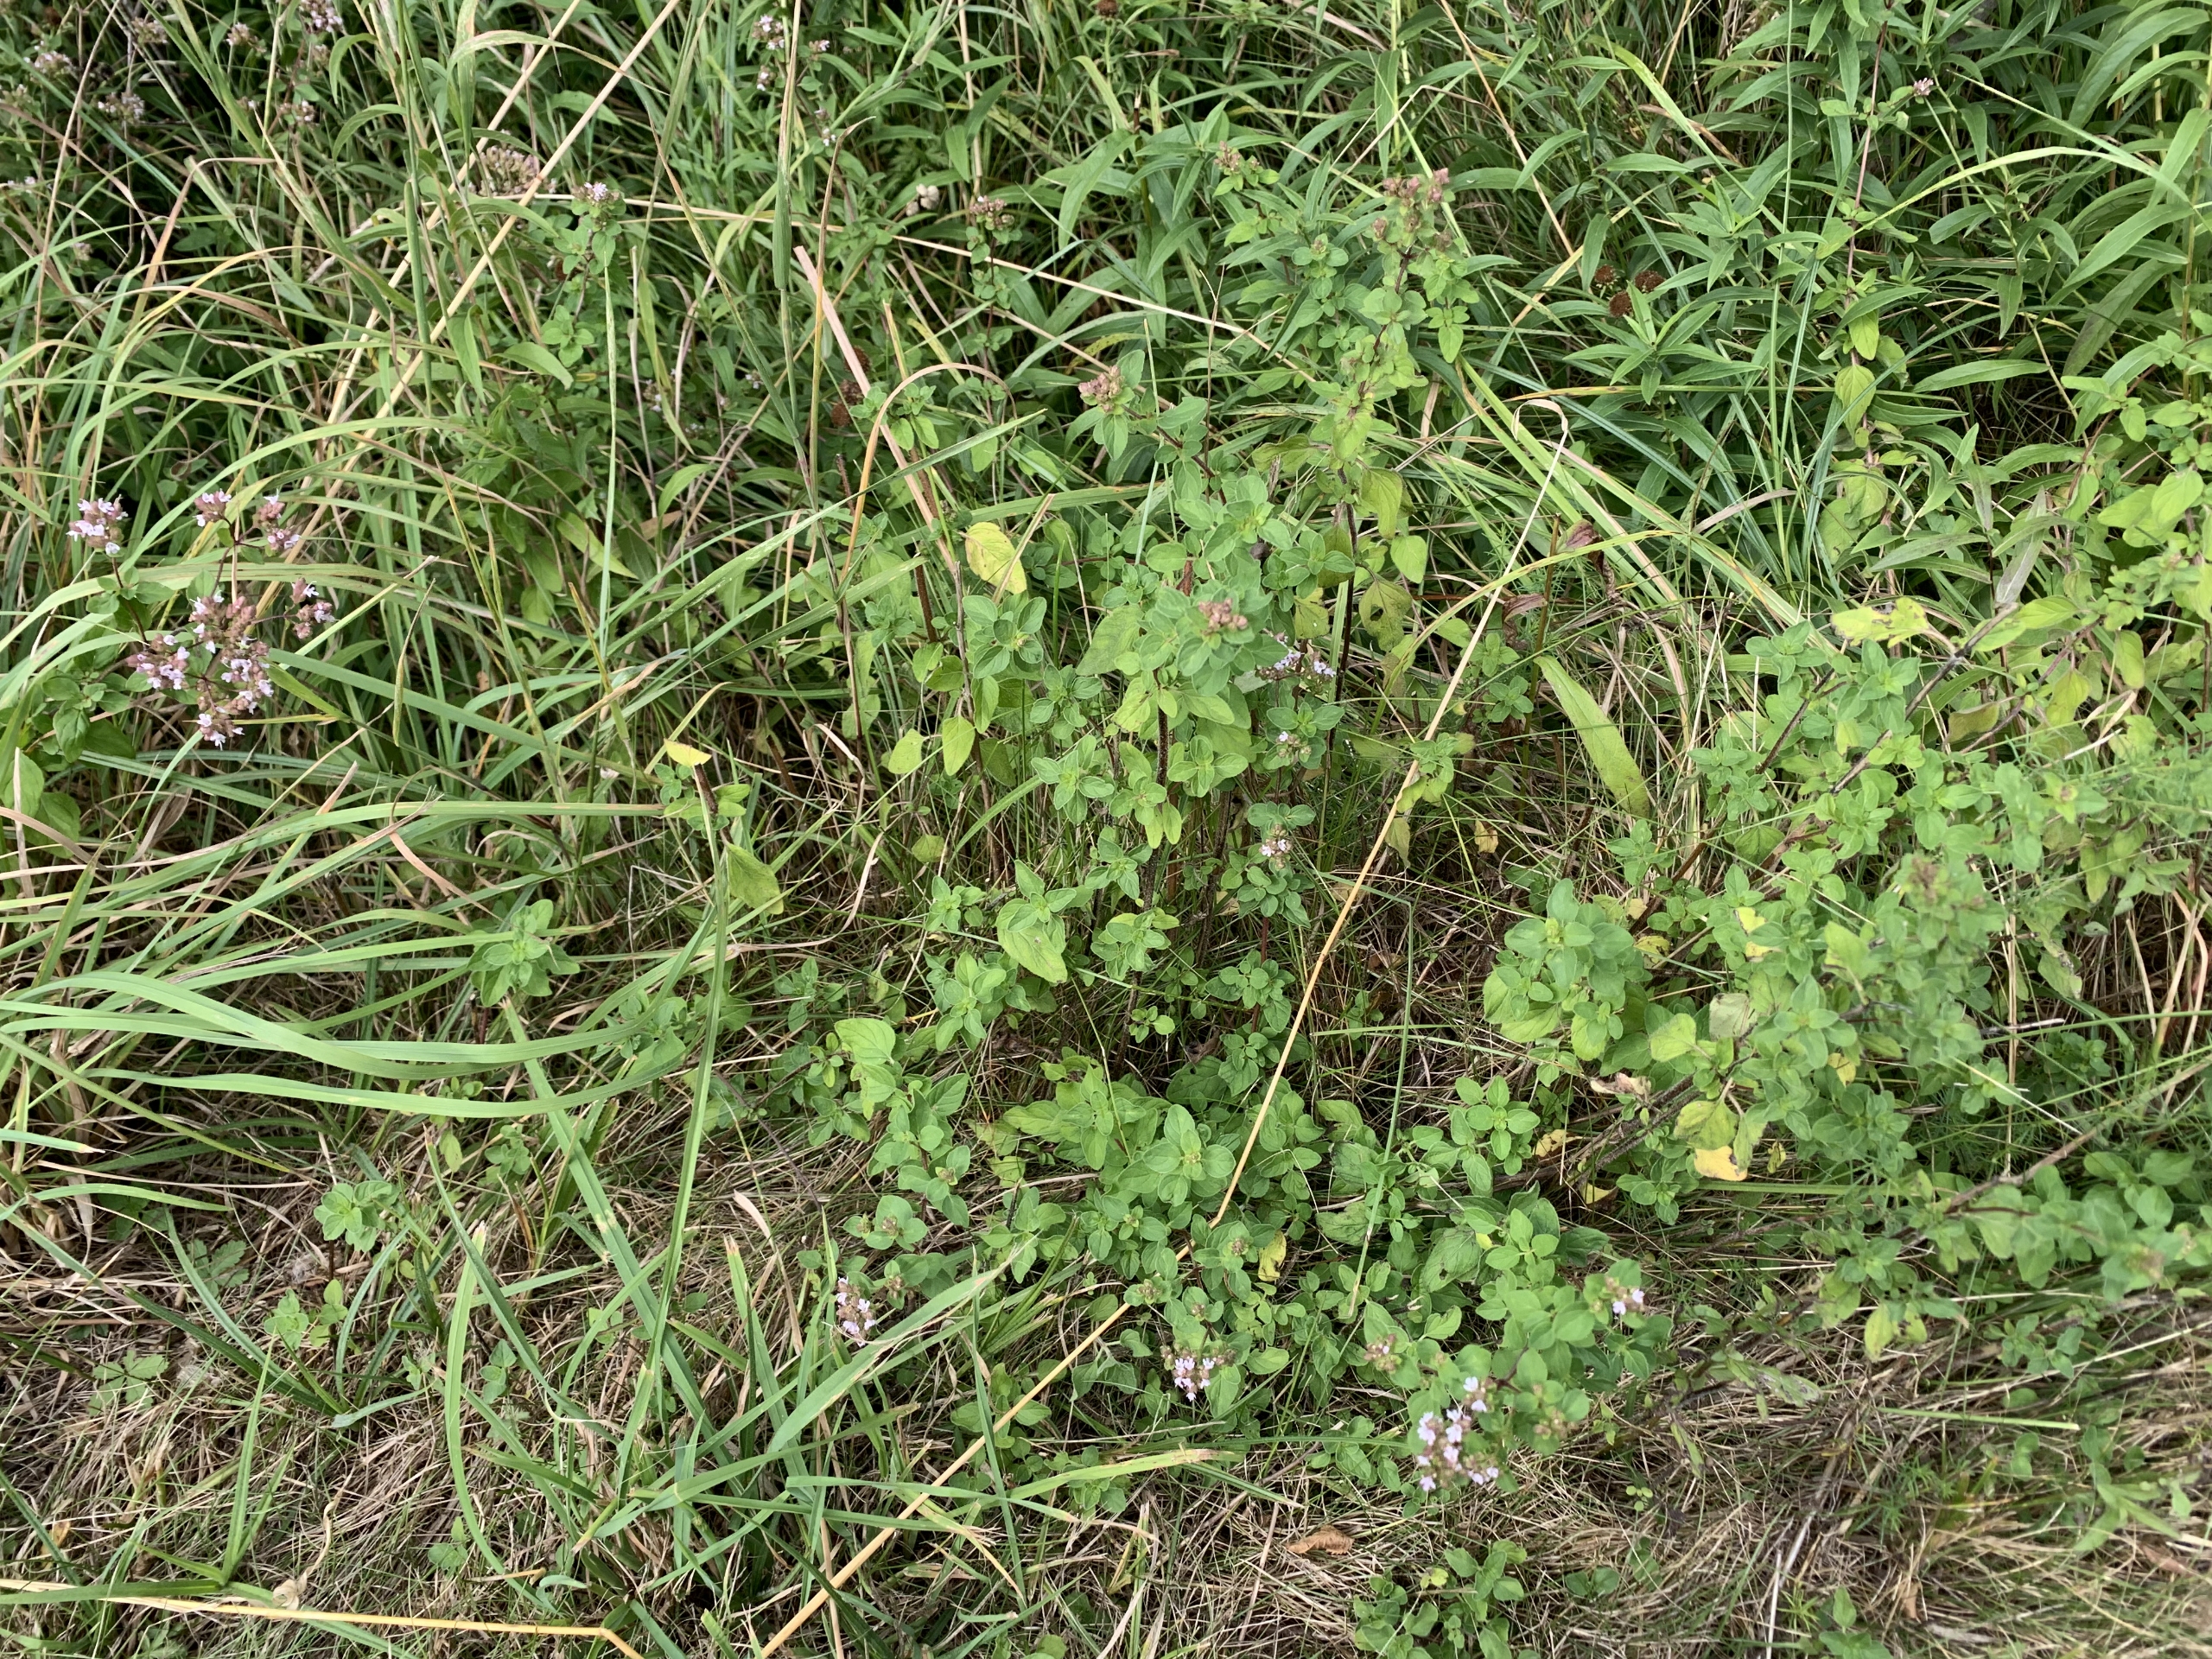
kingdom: Plantae
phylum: Tracheophyta
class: Magnoliopsida
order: Lamiales
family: Lamiaceae
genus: Origanum
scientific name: Origanum vulgare
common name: Merian
